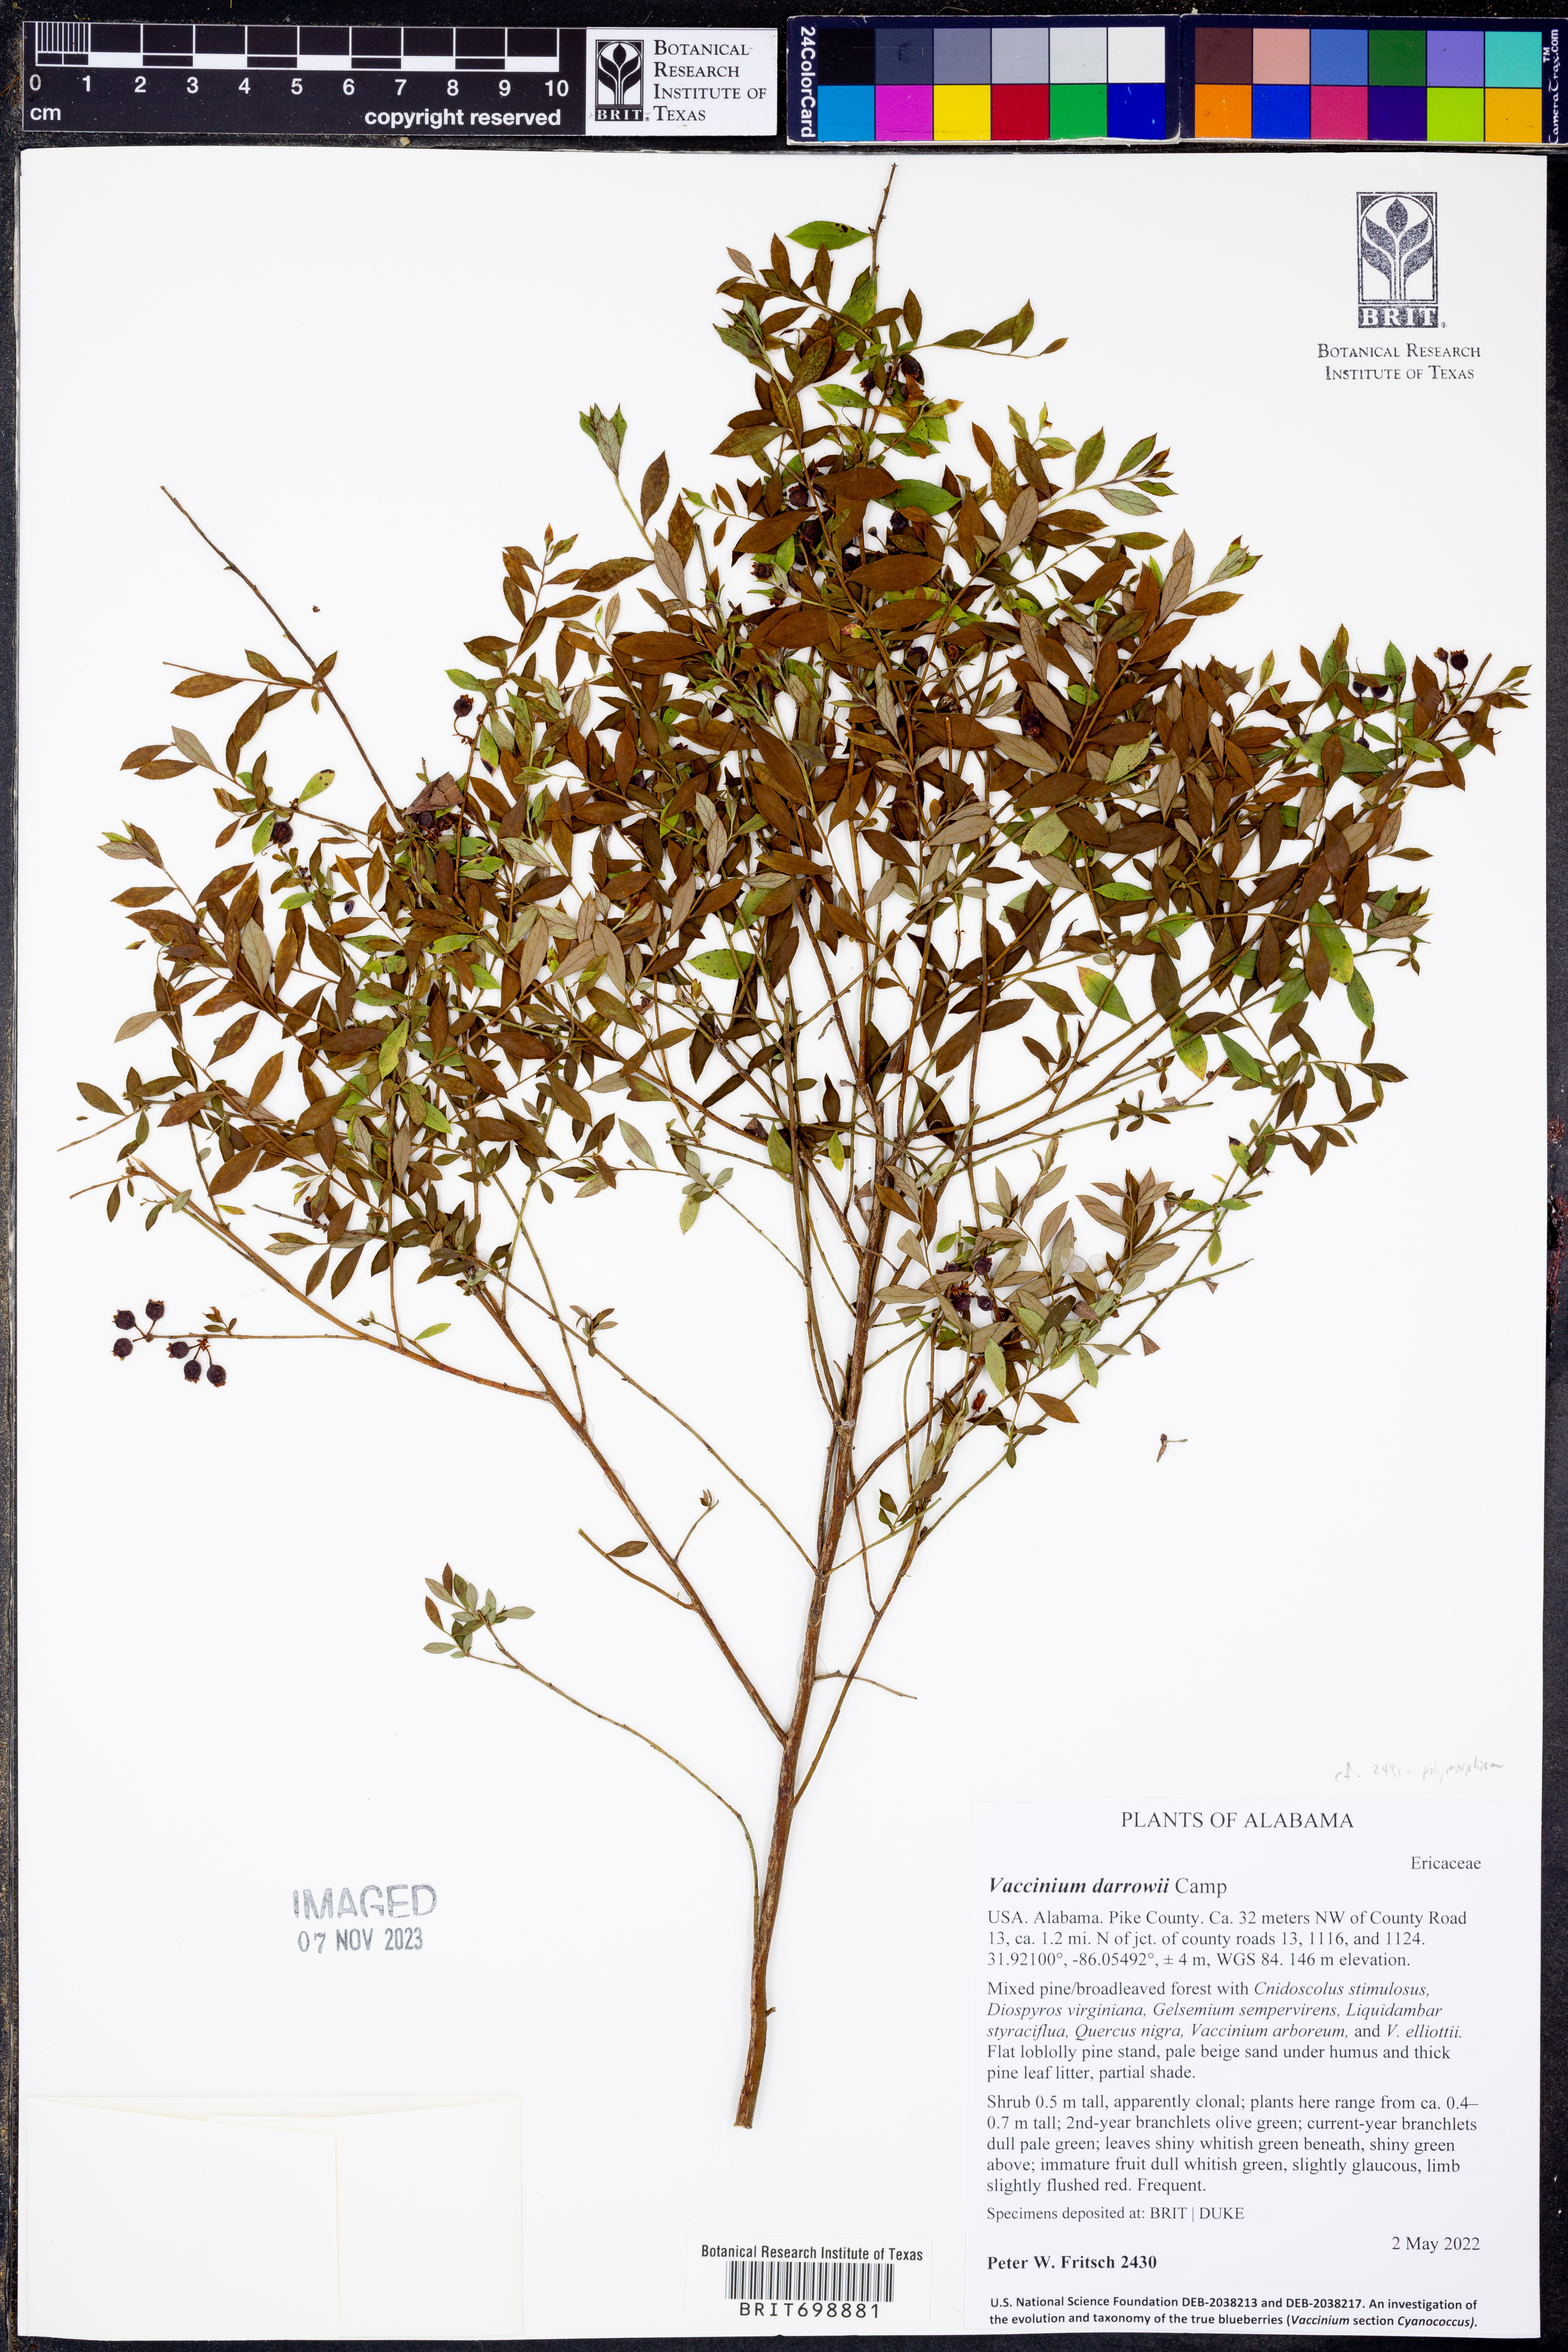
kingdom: Plantae
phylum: Tracheophyta
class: Magnoliopsida
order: Ericales
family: Ericaceae
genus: Vaccinium
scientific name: Vaccinium darrowii
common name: Darrow's blueberry
